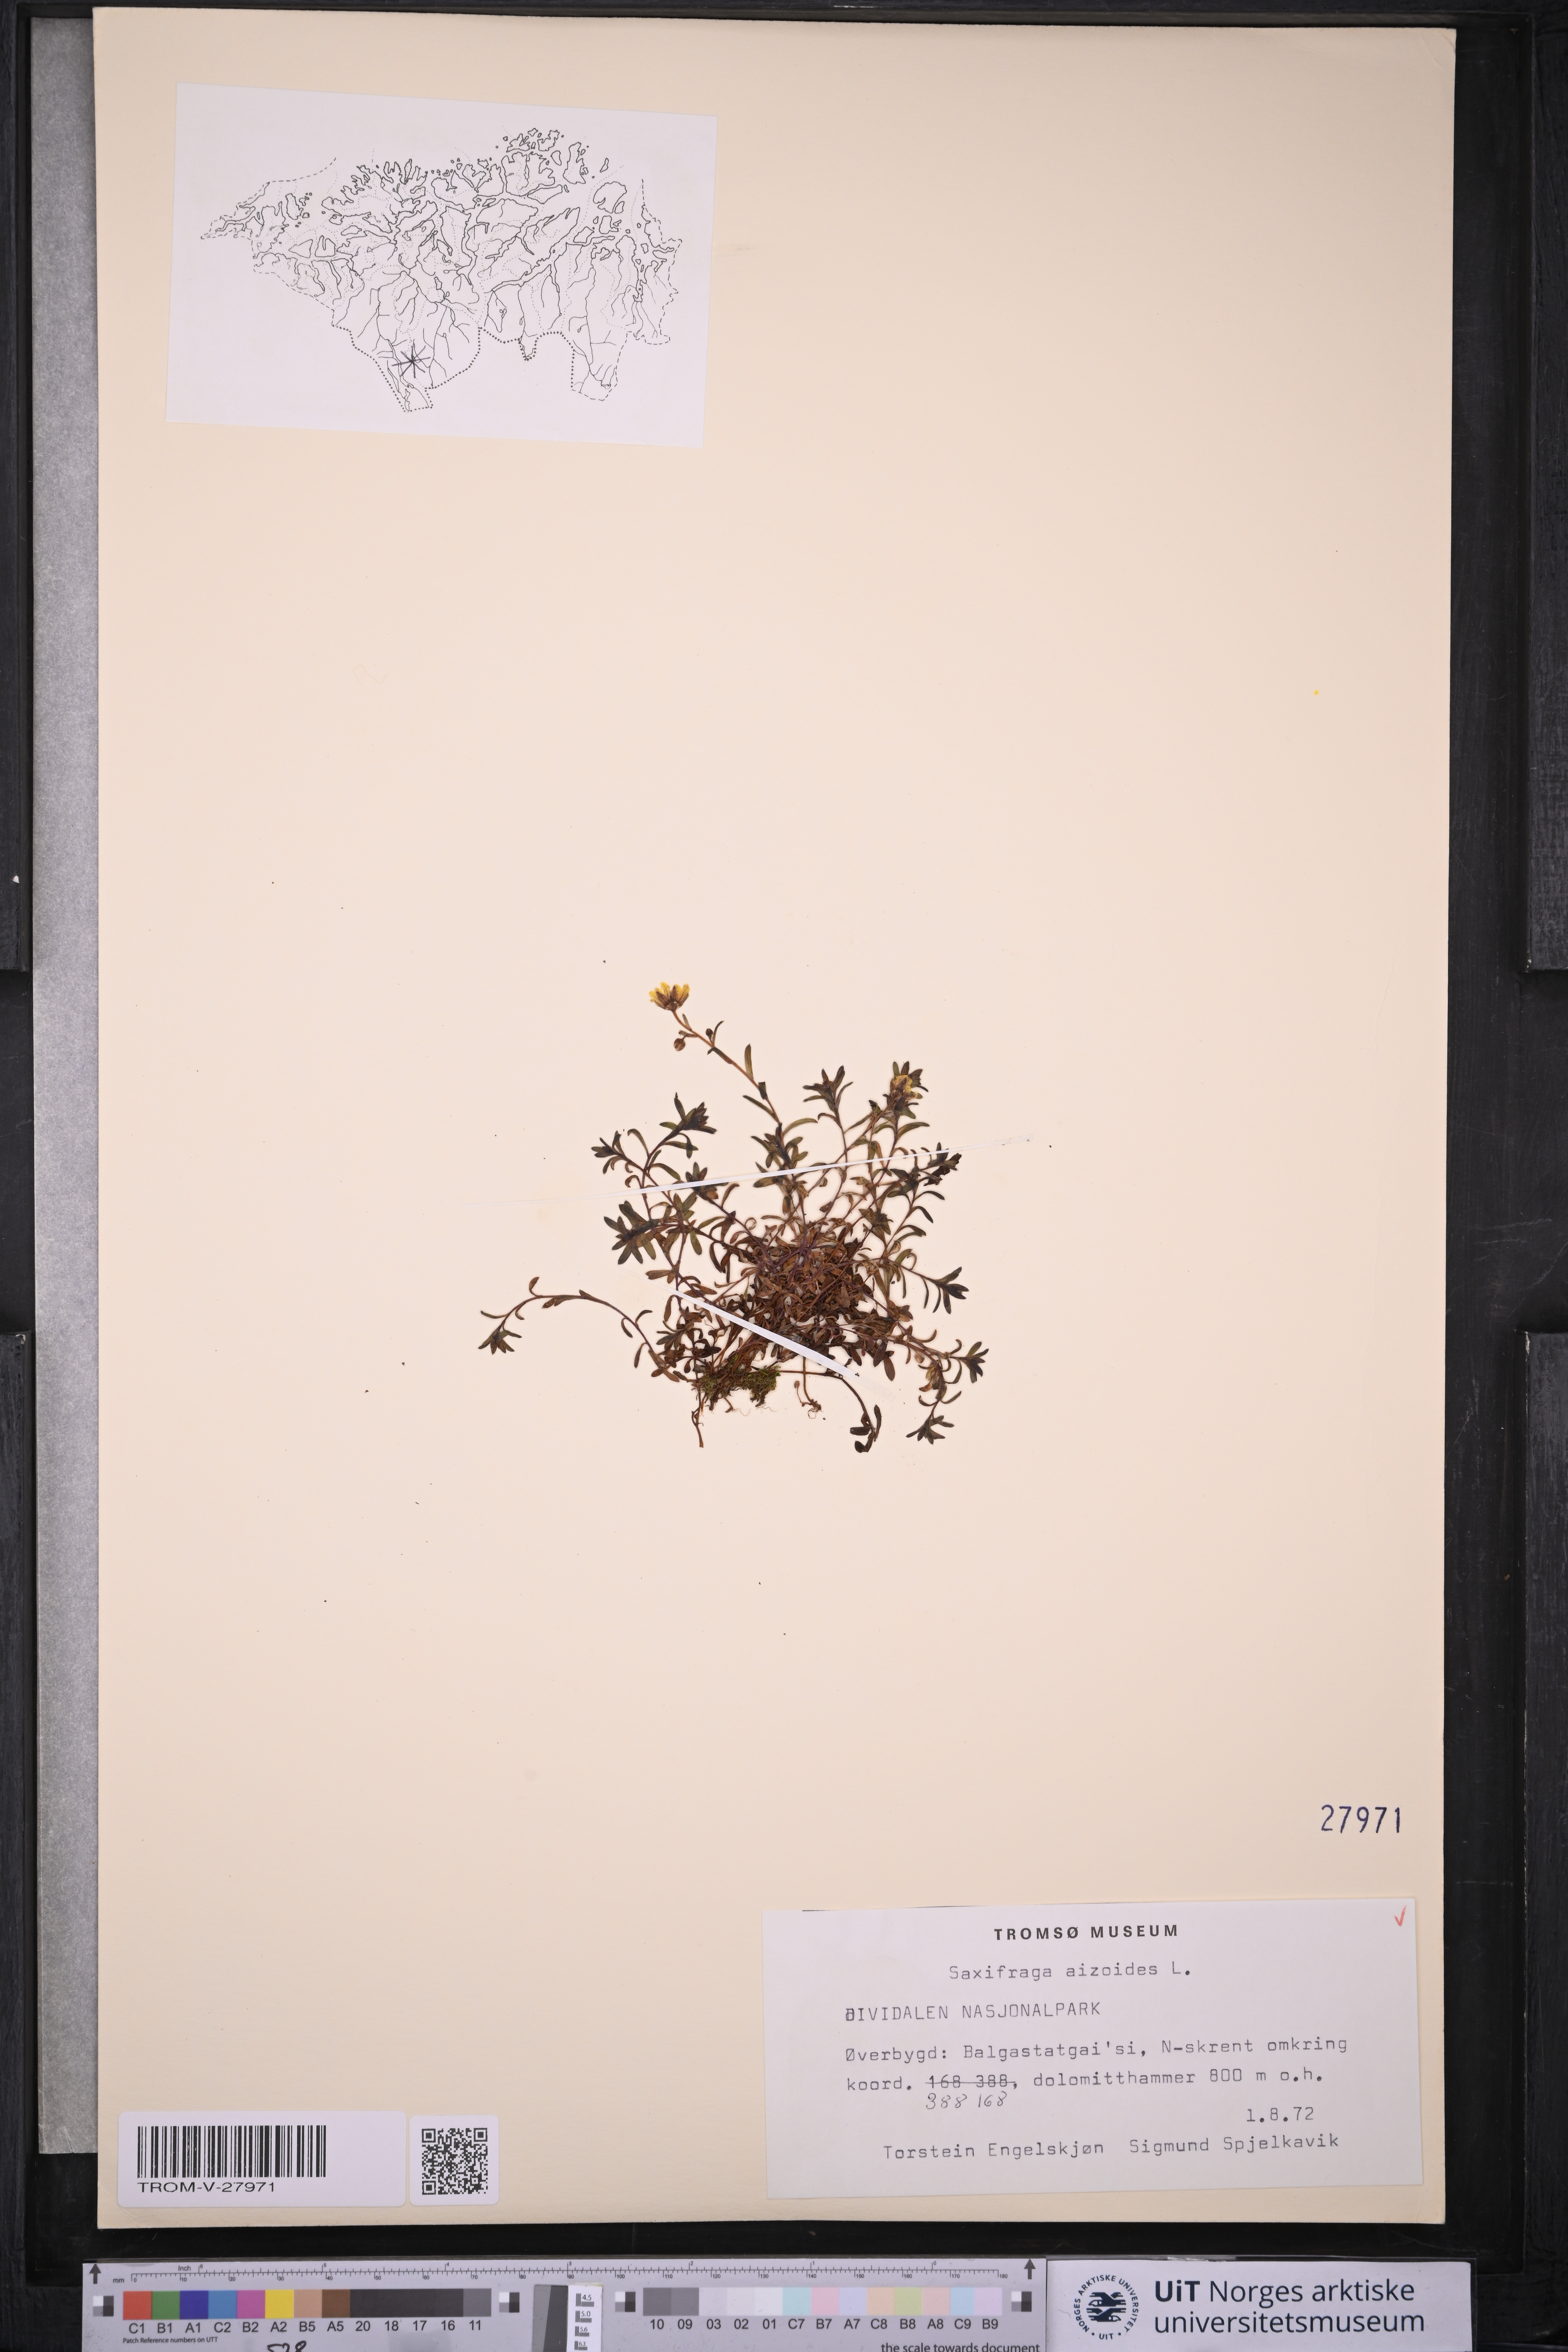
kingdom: Plantae
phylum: Tracheophyta
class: Magnoliopsida
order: Saxifragales
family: Saxifragaceae
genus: Saxifraga
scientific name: Saxifraga aizoides
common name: Yellow mountain saxifrage
